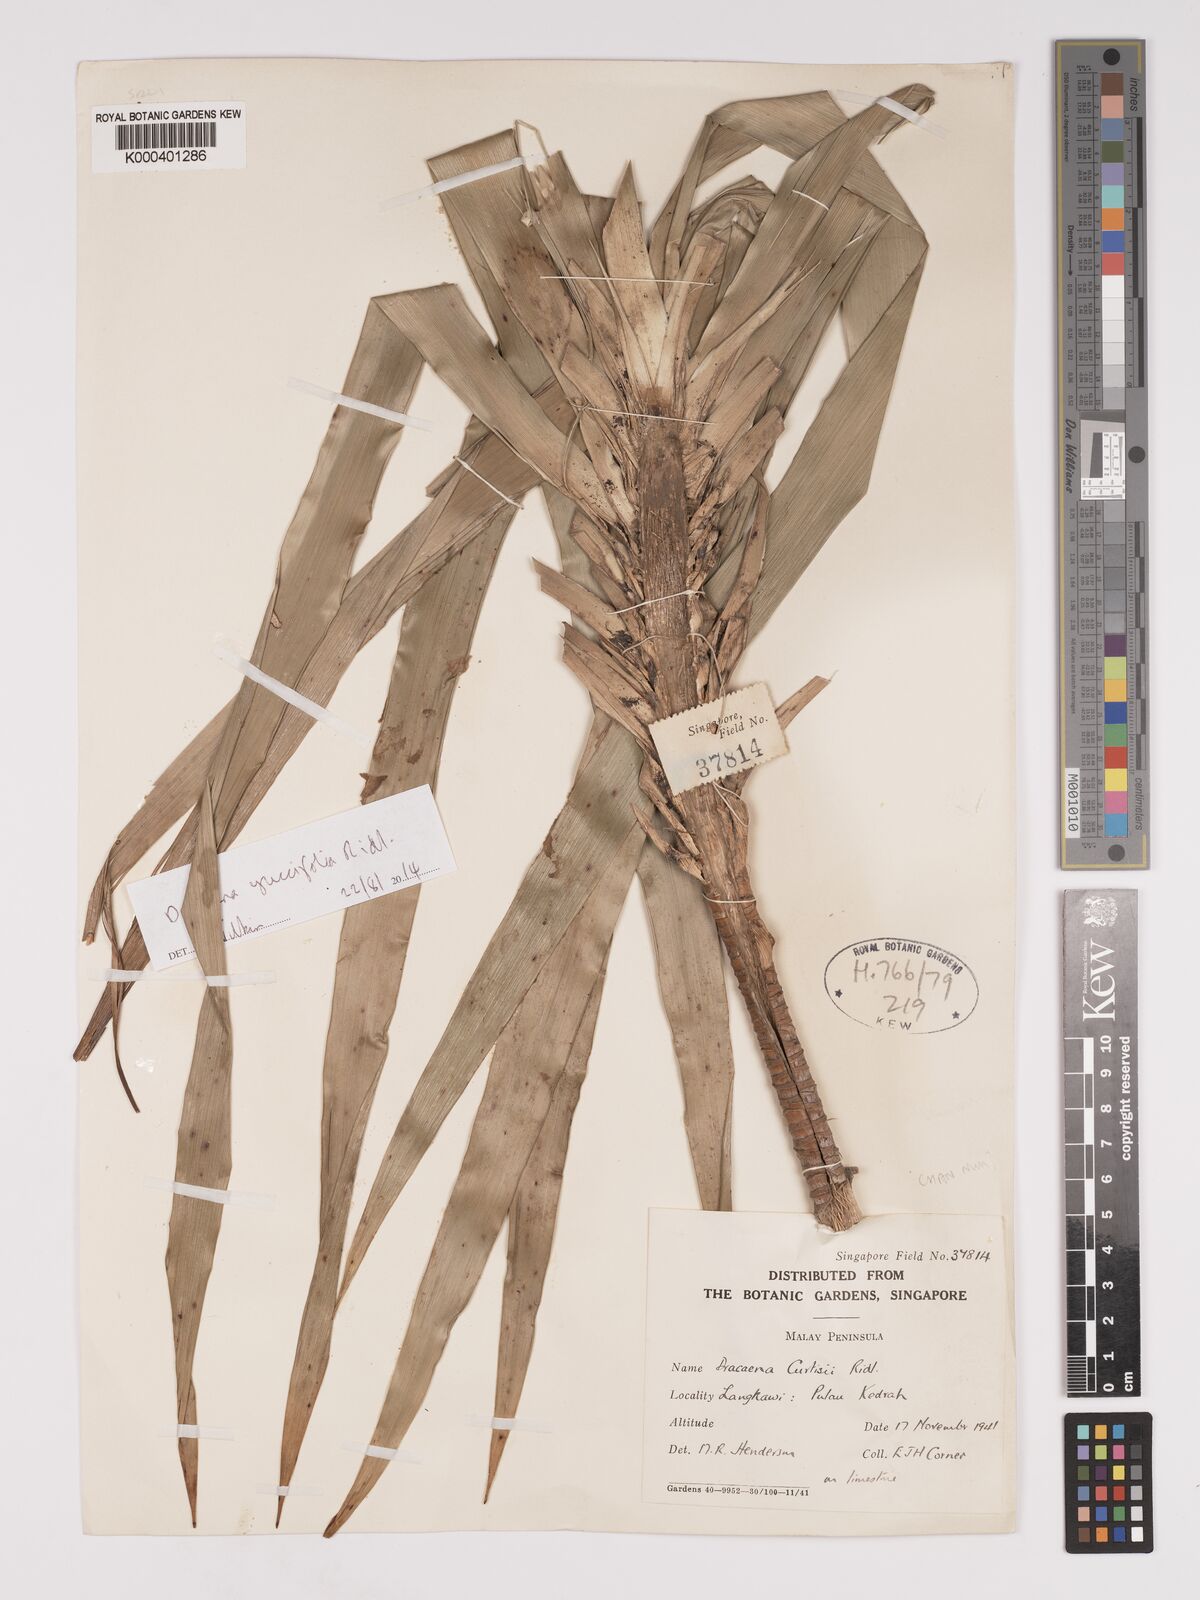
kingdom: Plantae
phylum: Tracheophyta
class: Liliopsida
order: Asparagales
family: Asparagaceae
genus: Dracaena
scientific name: Dracaena curtisii
